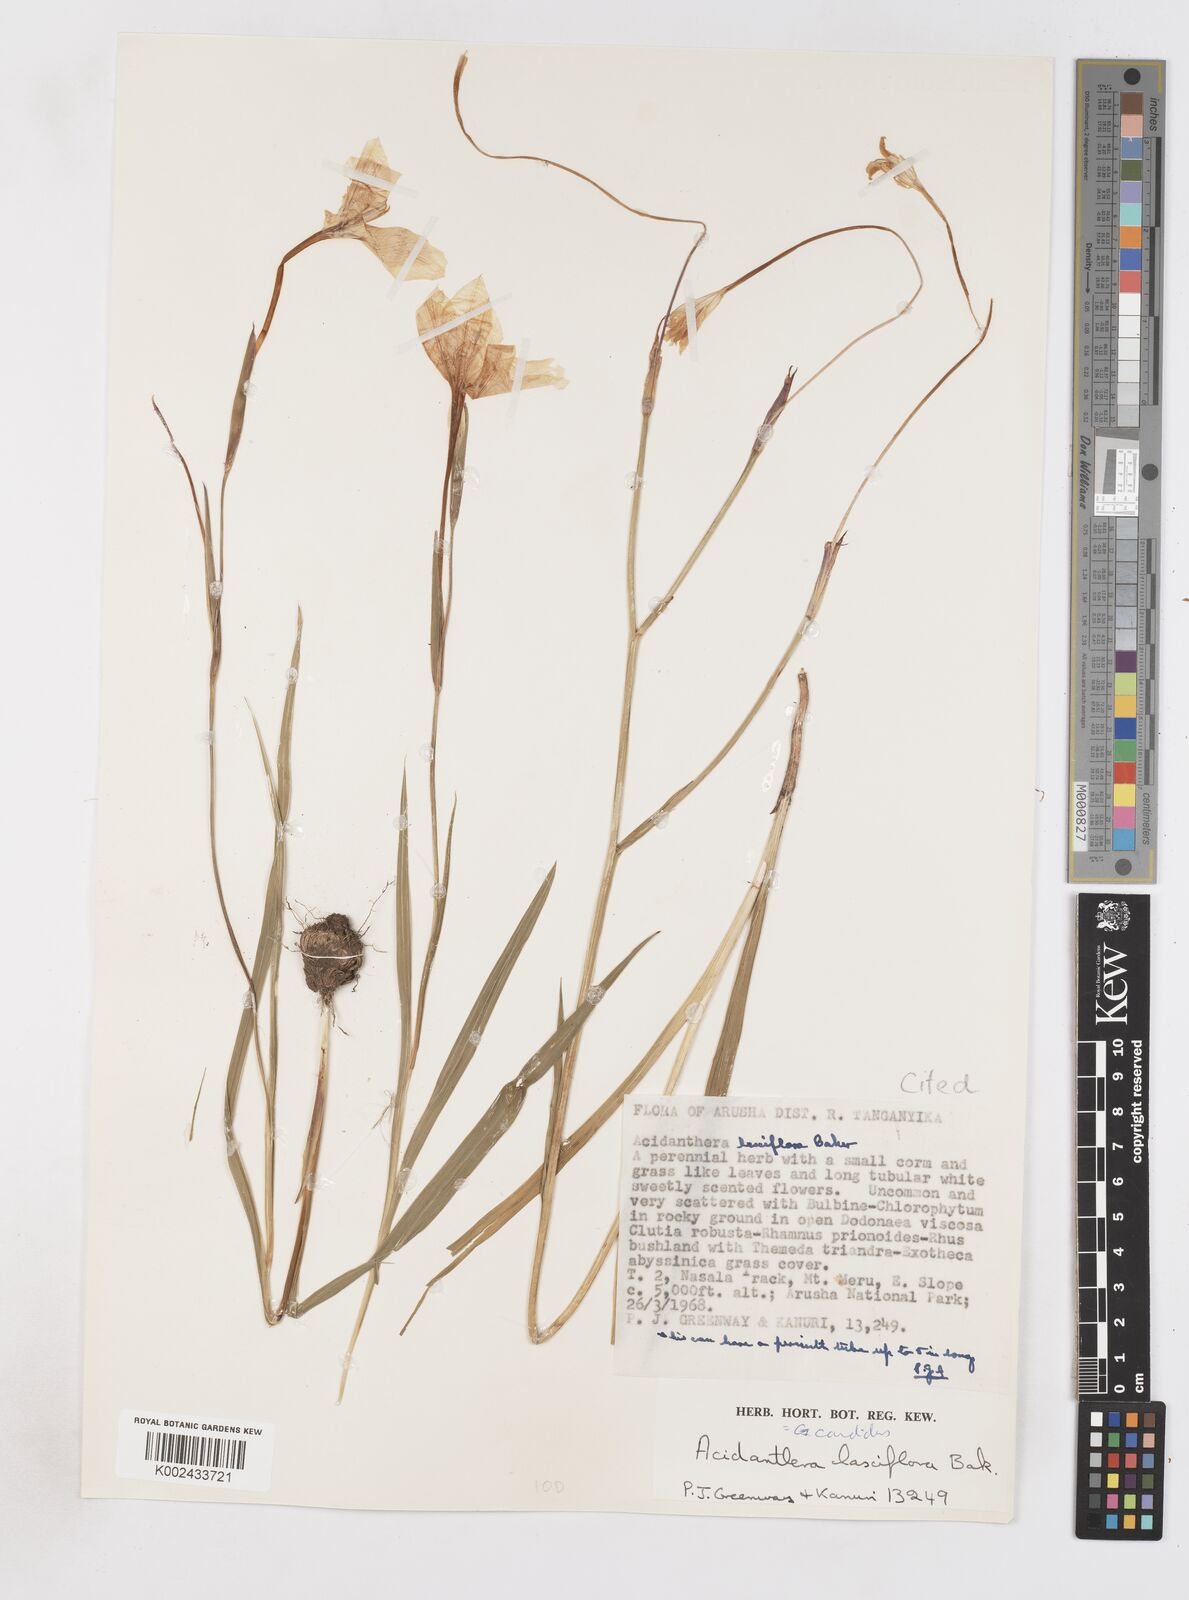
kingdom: Plantae
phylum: Tracheophyta
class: Liliopsida
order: Asparagales
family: Iridaceae
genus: Gladiolus
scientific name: Gladiolus candidus
